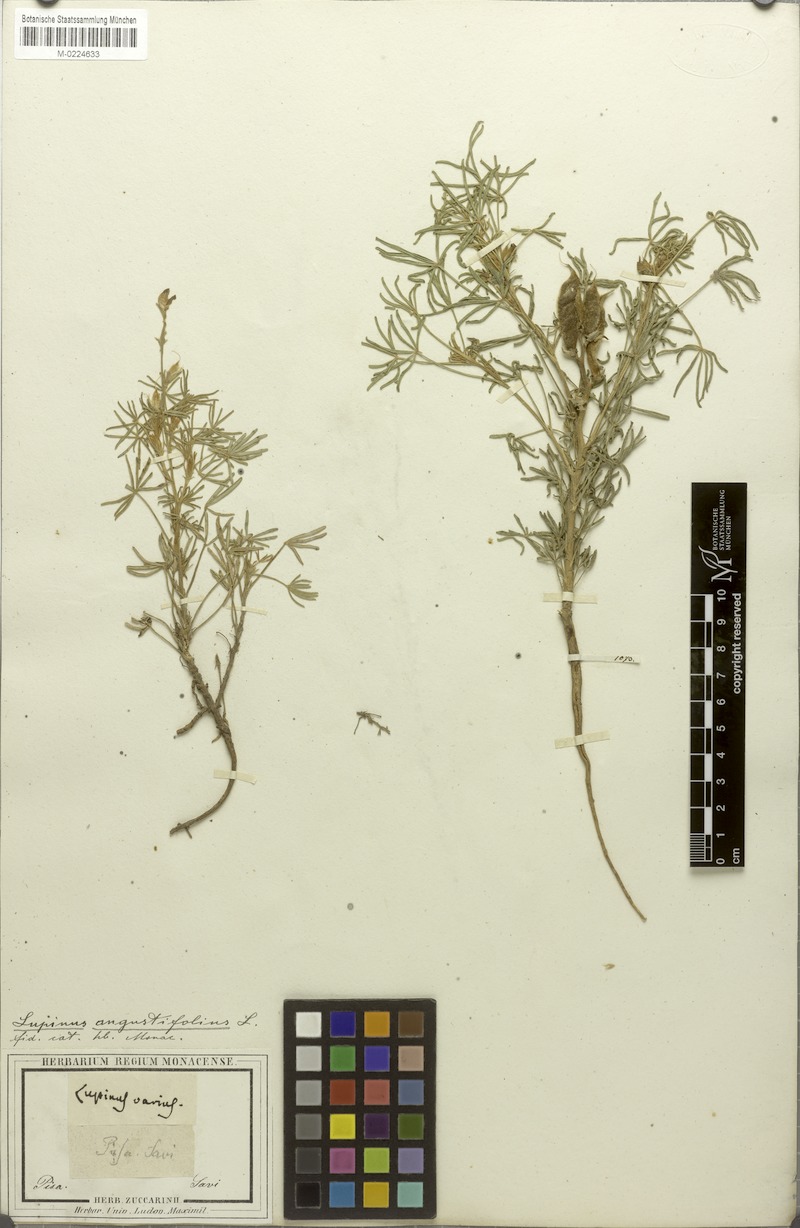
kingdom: Plantae
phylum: Tracheophyta
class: Magnoliopsida
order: Fabales
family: Fabaceae
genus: Lupinus
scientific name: Lupinus angustifolius
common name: Narrow-leaved lupin
